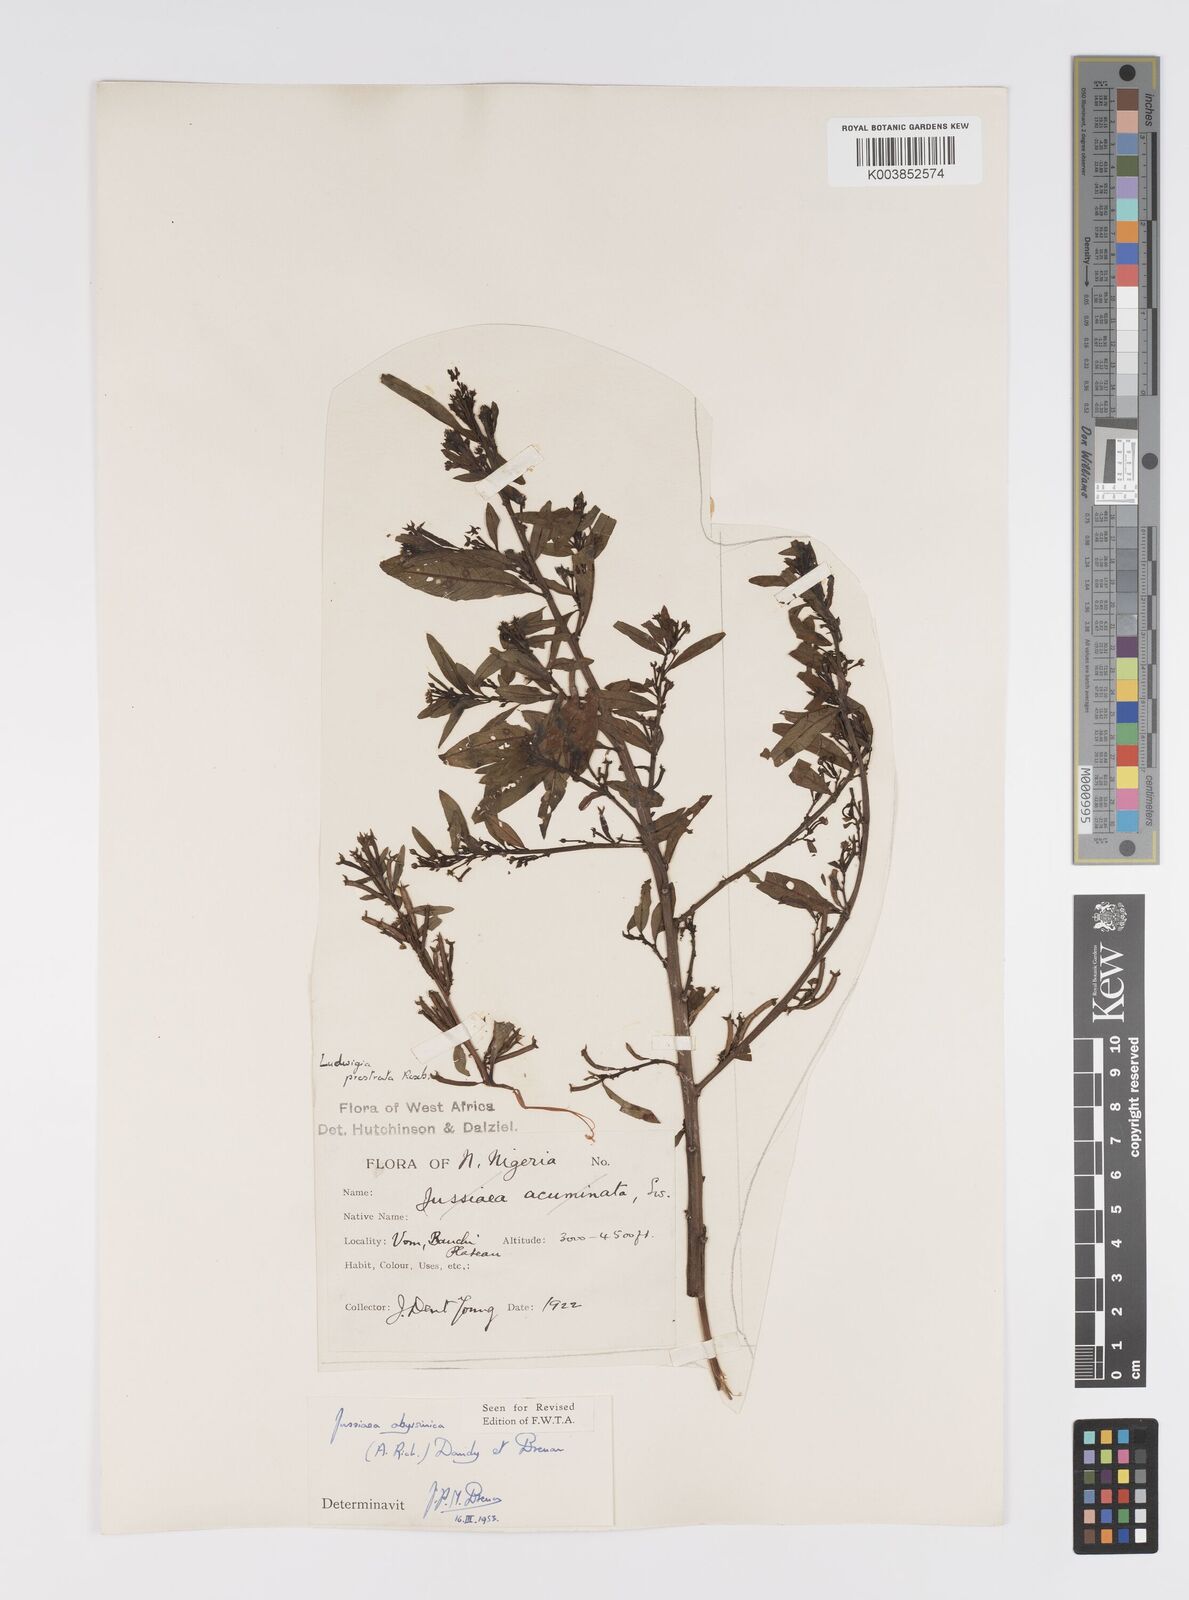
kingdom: Plantae
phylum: Tracheophyta
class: Magnoliopsida
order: Myrtales
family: Onagraceae
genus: Ludwigia
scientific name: Ludwigia abyssinica
